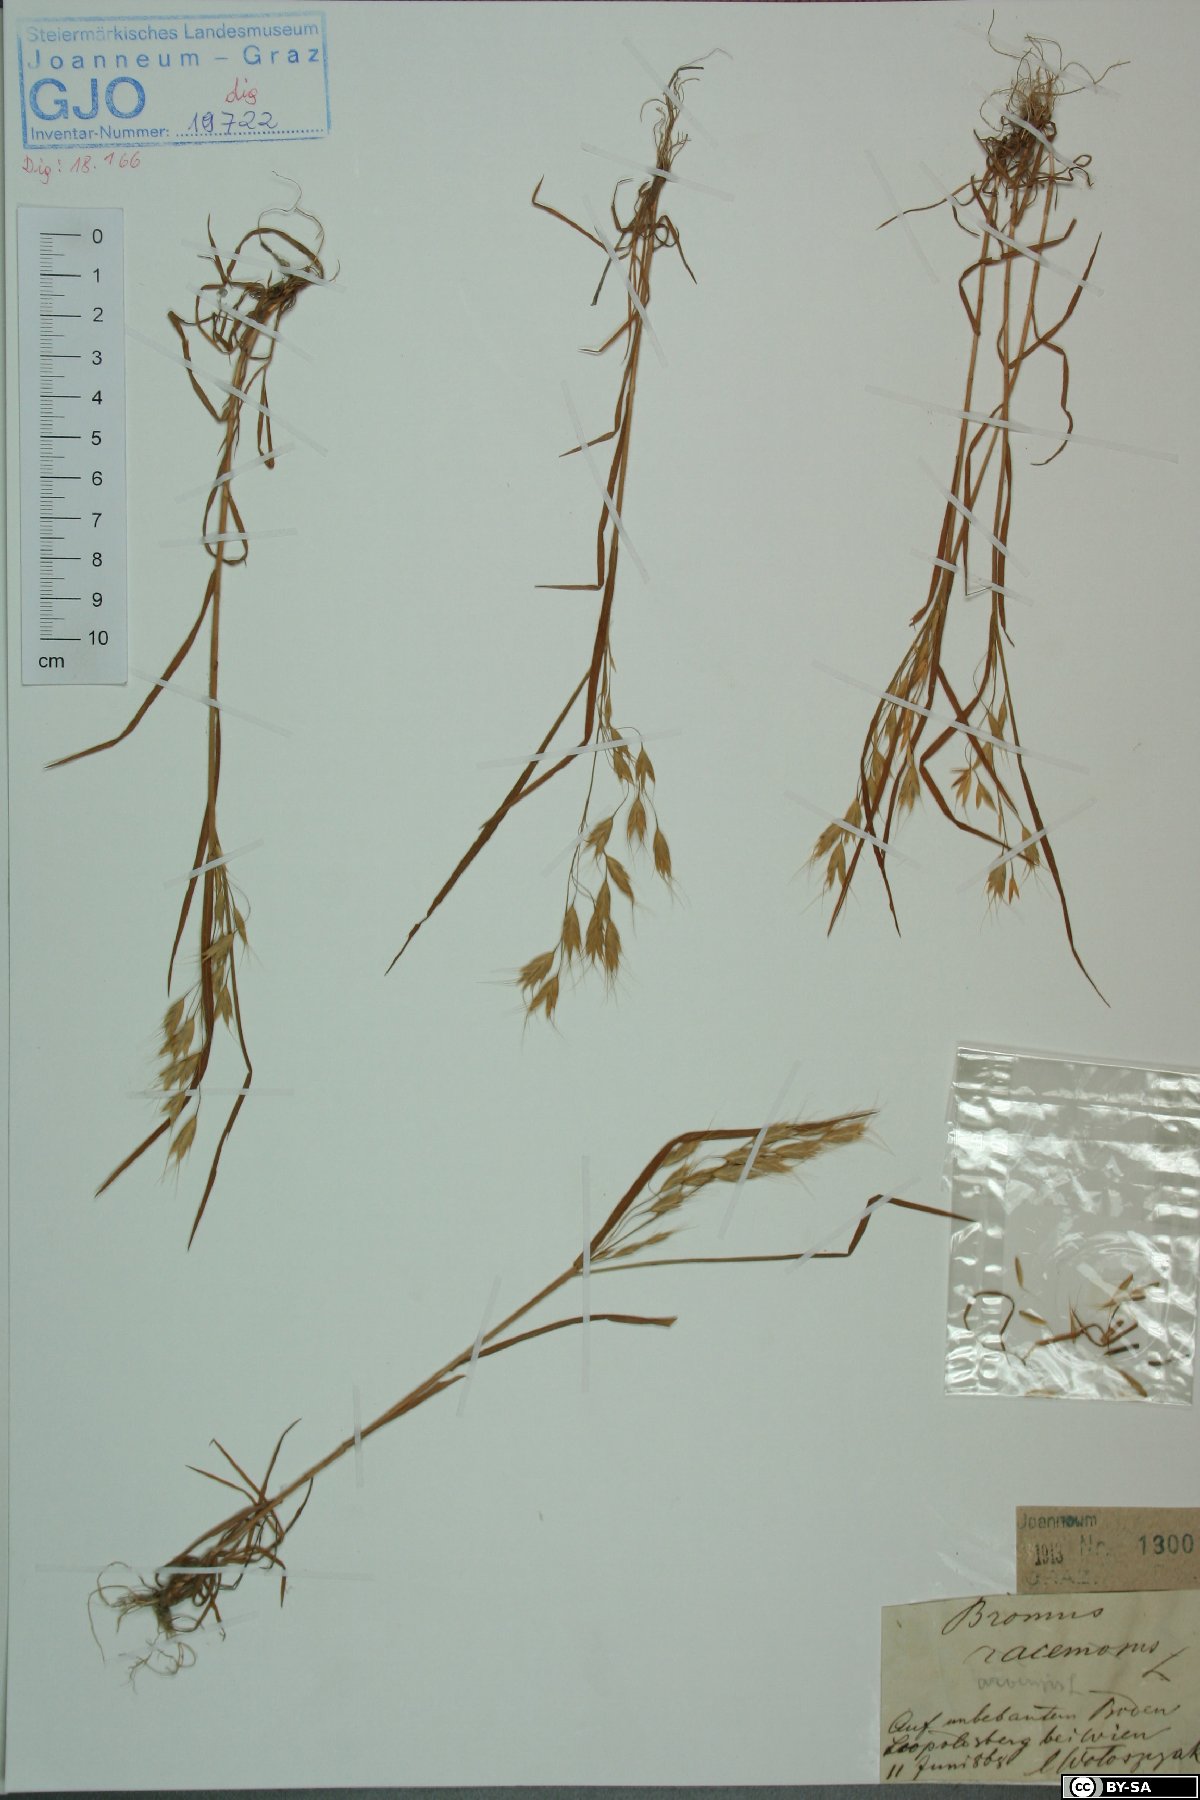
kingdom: Plantae
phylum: Tracheophyta
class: Liliopsida
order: Poales
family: Poaceae
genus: Bromus
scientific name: Bromus arvensis
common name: Field brome
